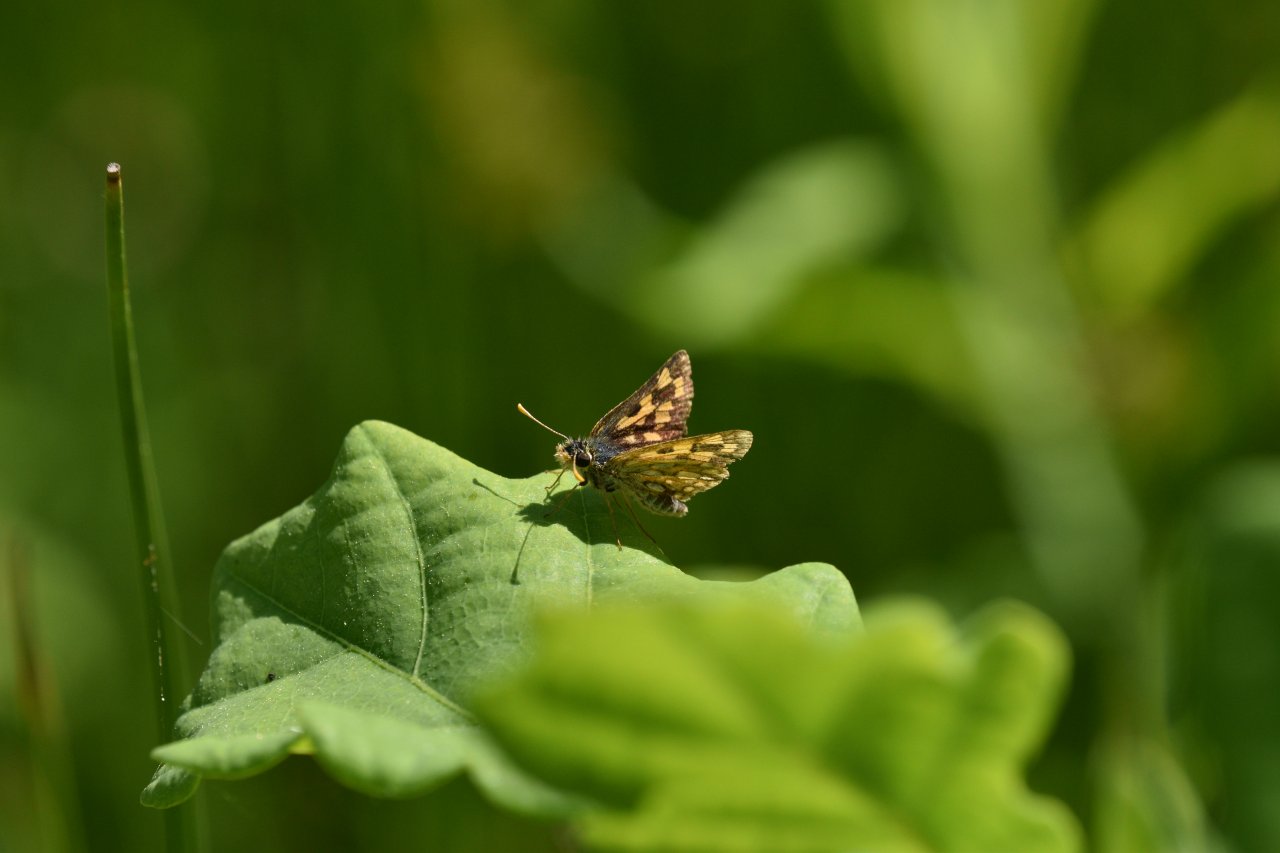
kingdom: Animalia
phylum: Arthropoda
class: Insecta
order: Lepidoptera
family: Hesperiidae
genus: Carterocephalus
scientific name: Carterocephalus palaemon
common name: Chequered Skipper
